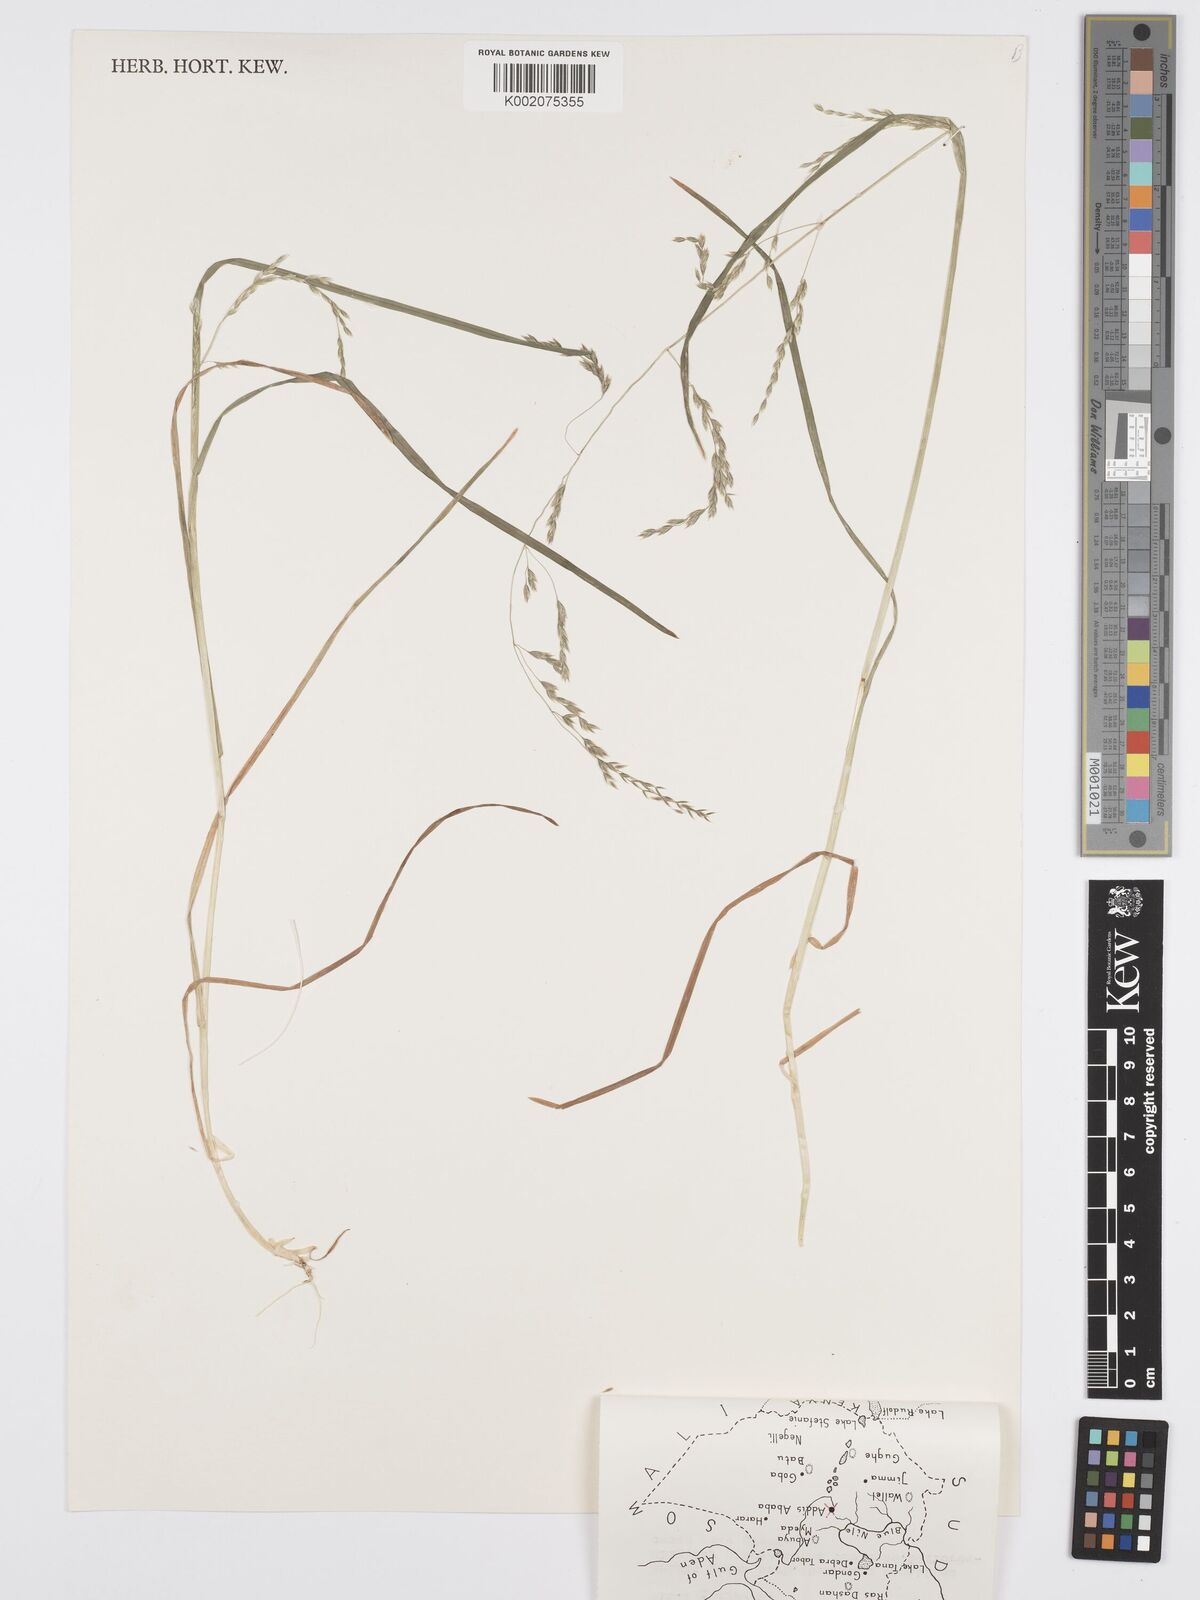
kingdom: Plantae
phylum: Tracheophyta
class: Liliopsida
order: Poales
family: Poaceae
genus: Poa
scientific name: Poa schimperiana
